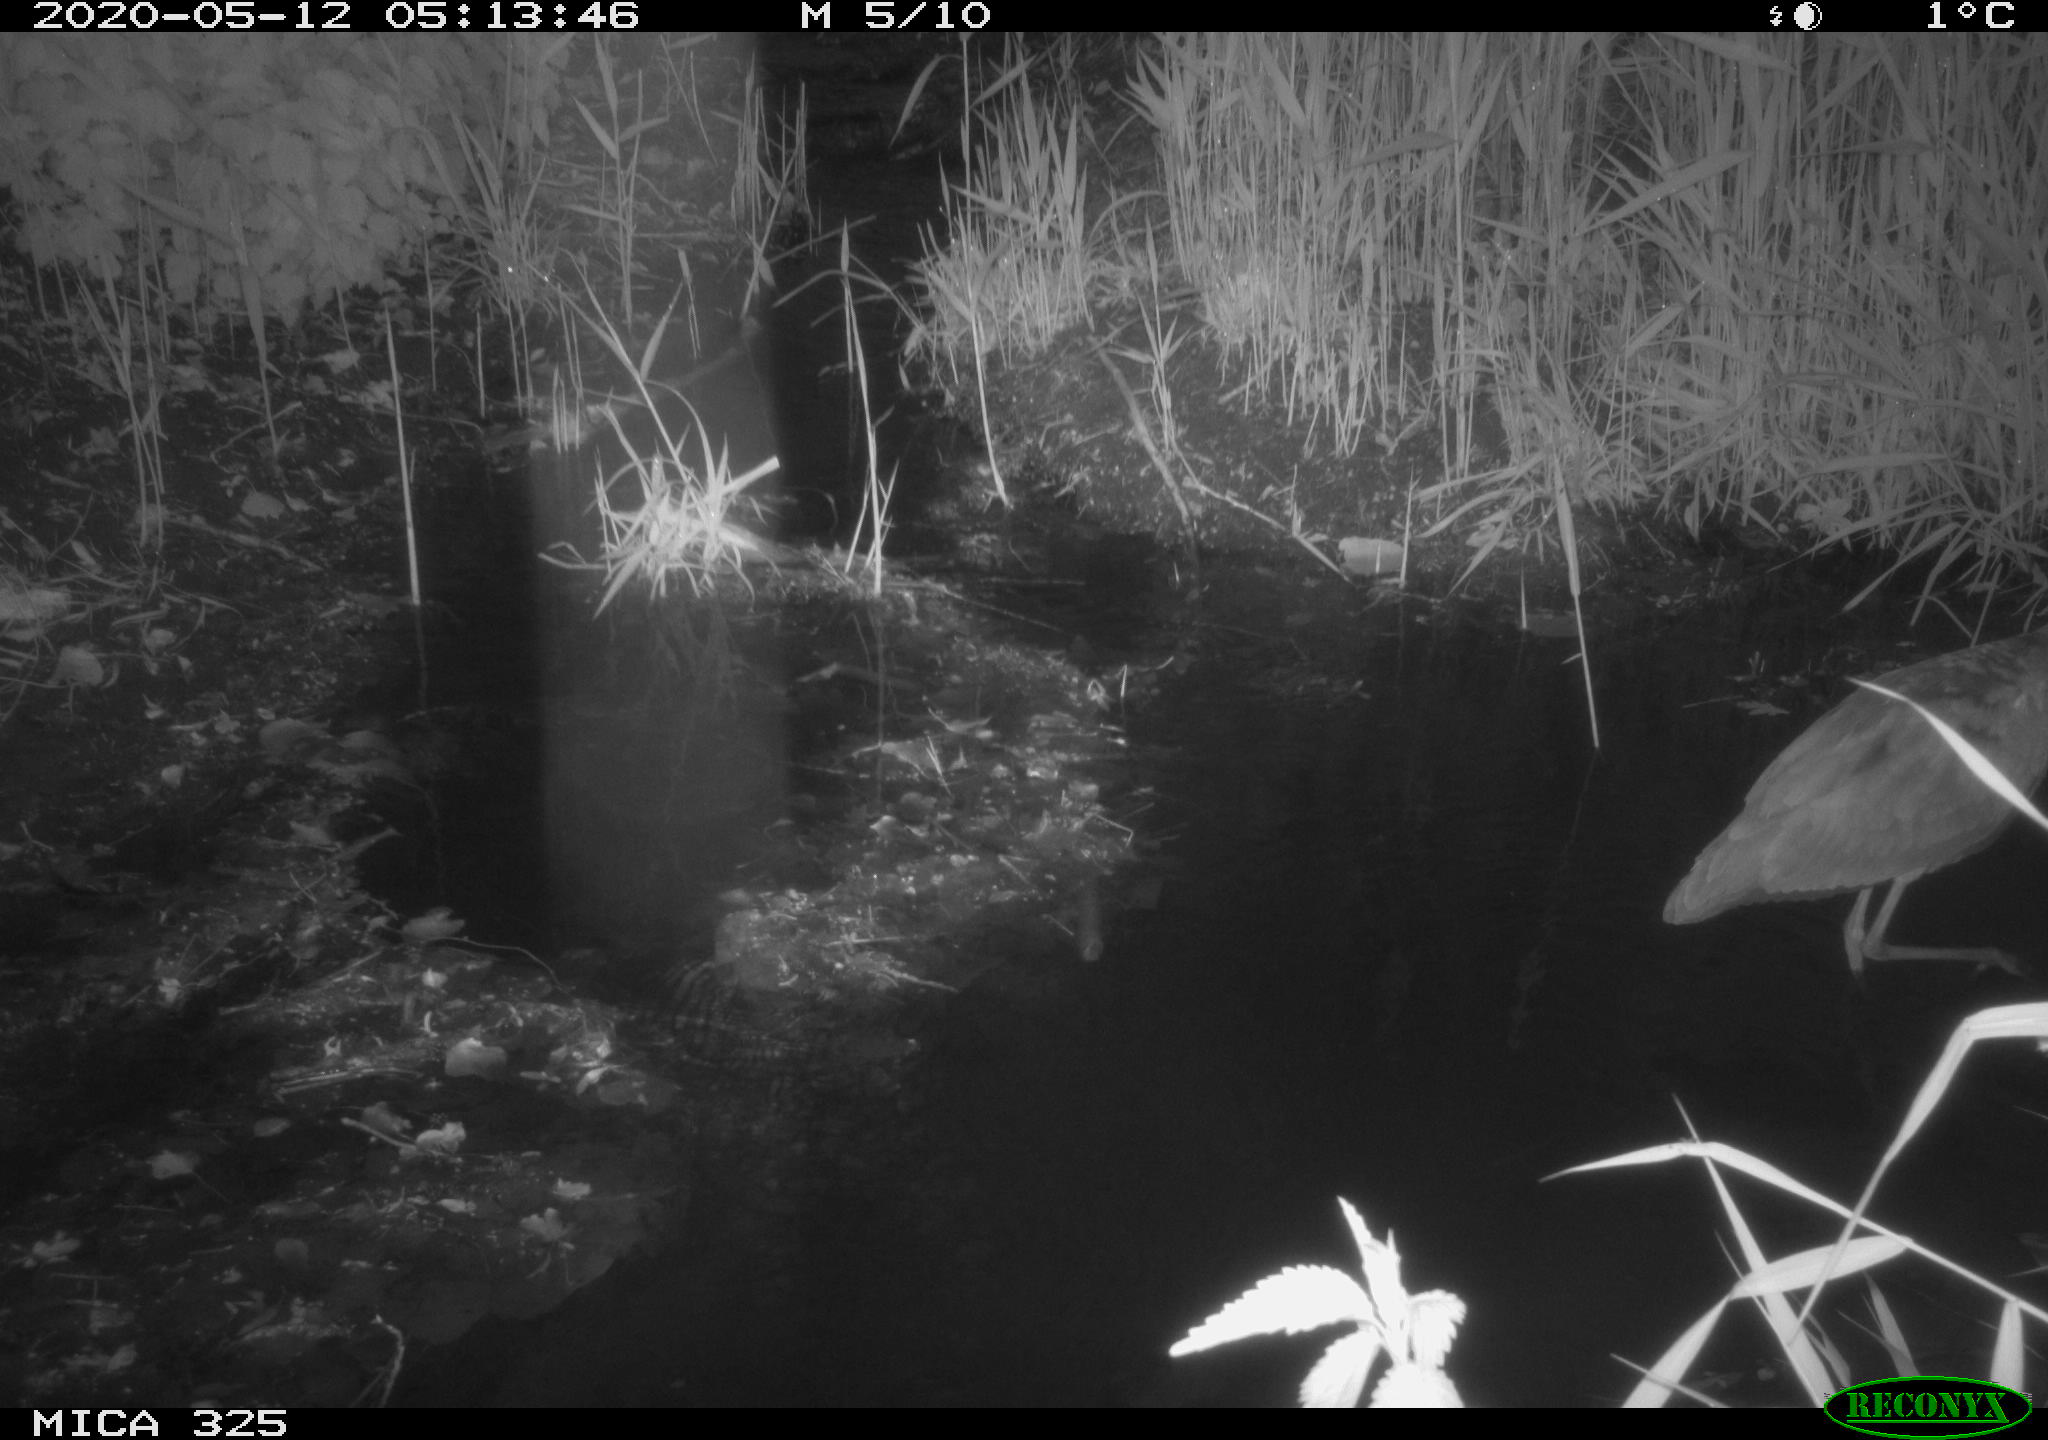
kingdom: Animalia
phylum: Chordata
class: Aves
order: Pelecaniformes
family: Ardeidae
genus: Ardea
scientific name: Ardea cinerea
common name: Grey heron
